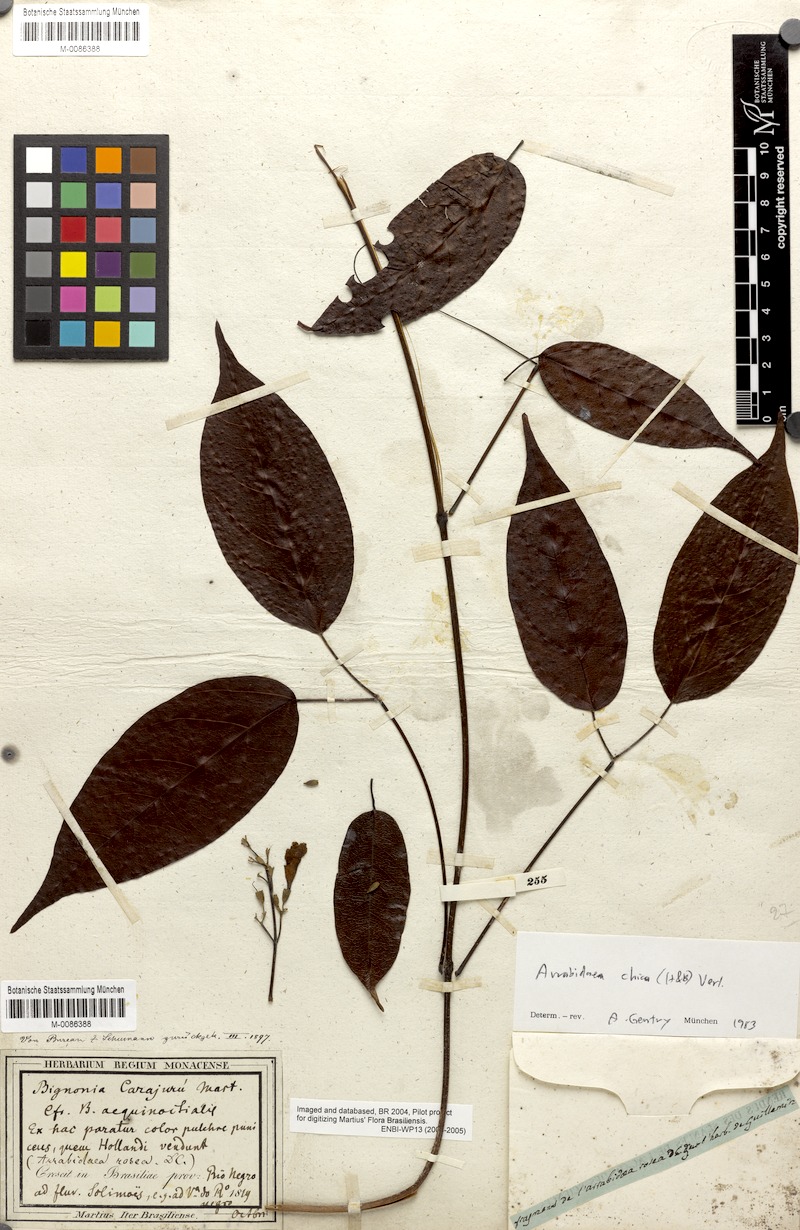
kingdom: Plantae
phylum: Tracheophyta
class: Magnoliopsida
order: Lamiales
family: Bignoniaceae
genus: Fridericia
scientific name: Fridericia chica
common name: Cricketvine
